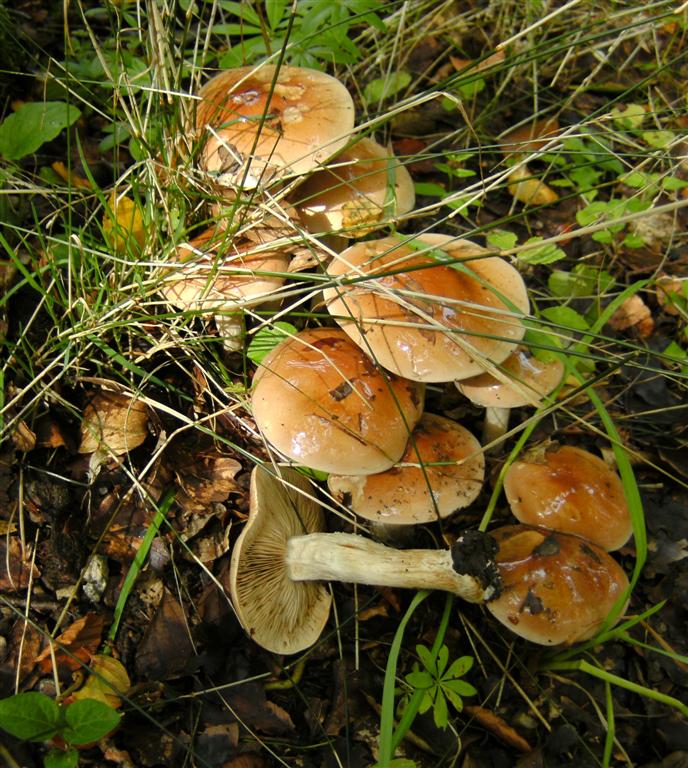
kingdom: Fungi
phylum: Basidiomycota
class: Agaricomycetes
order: Agaricales
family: Hymenogastraceae
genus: Hebeloma
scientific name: Hebeloma mesophaeum
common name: lerbrun tåreblad
